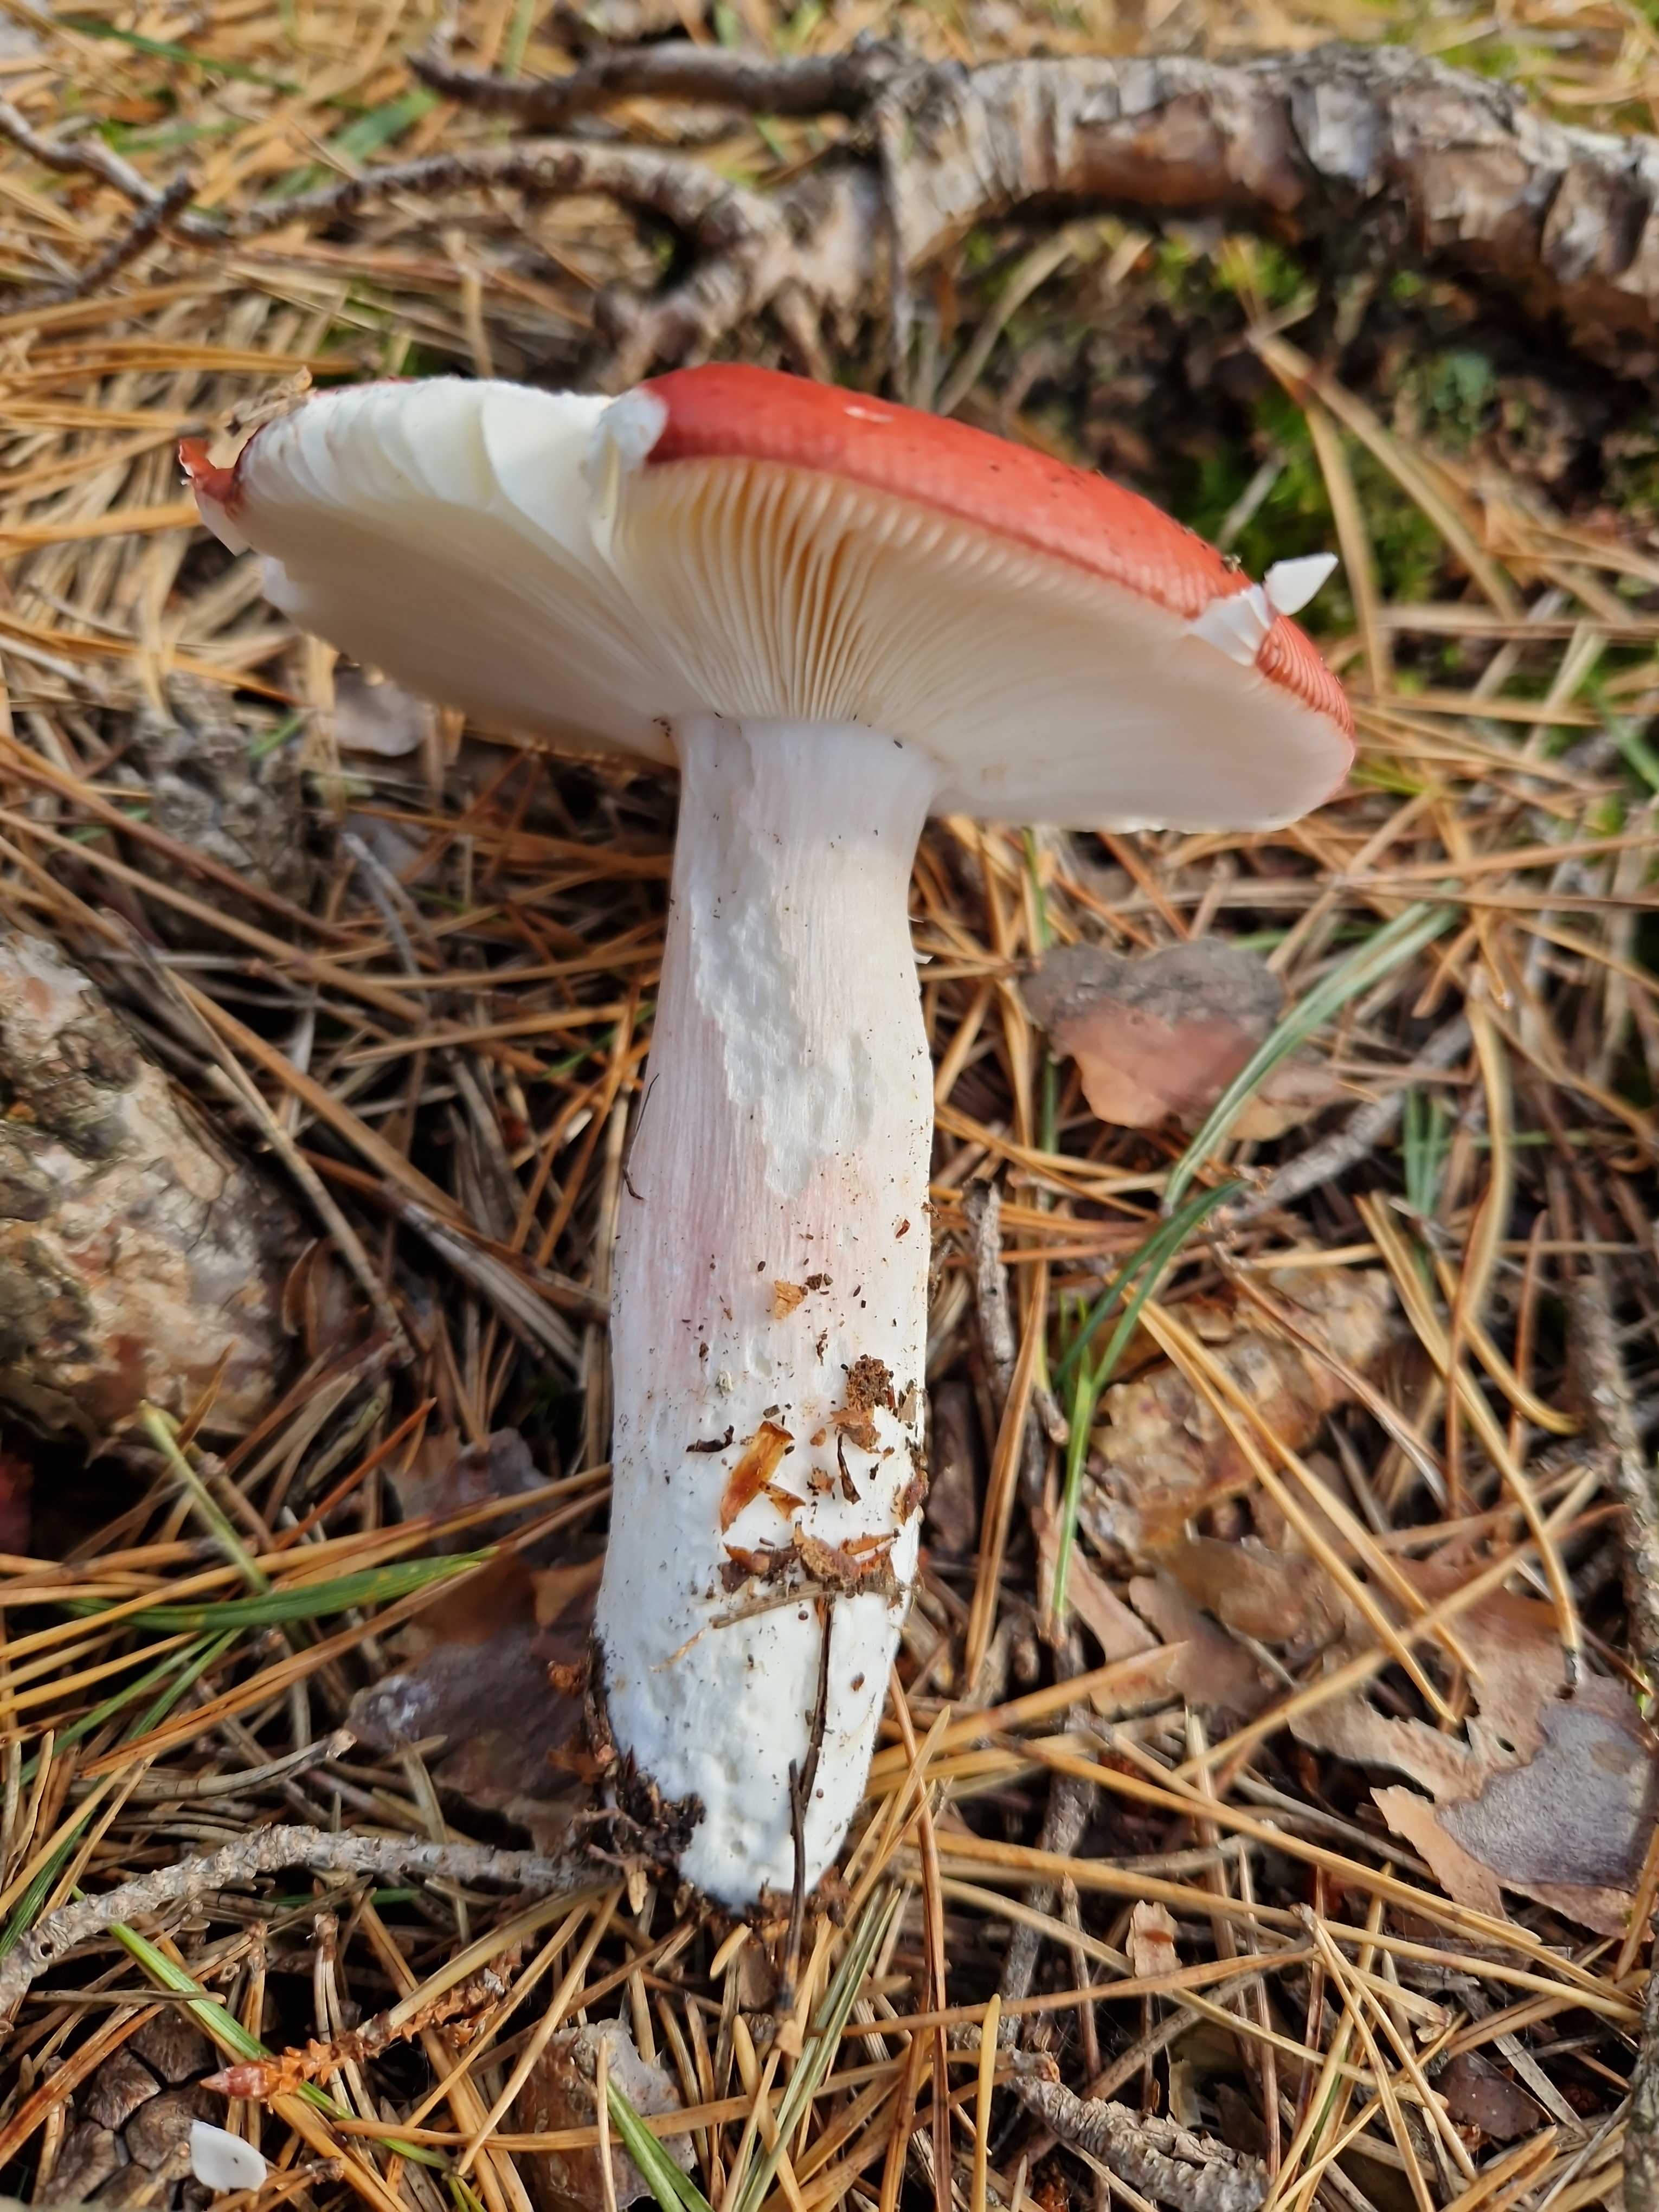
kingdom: Fungi
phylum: Basidiomycota
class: Agaricomycetes
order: Russulales
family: Russulaceae
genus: Russula
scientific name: Russula paludosa
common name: prægtig skørhat
